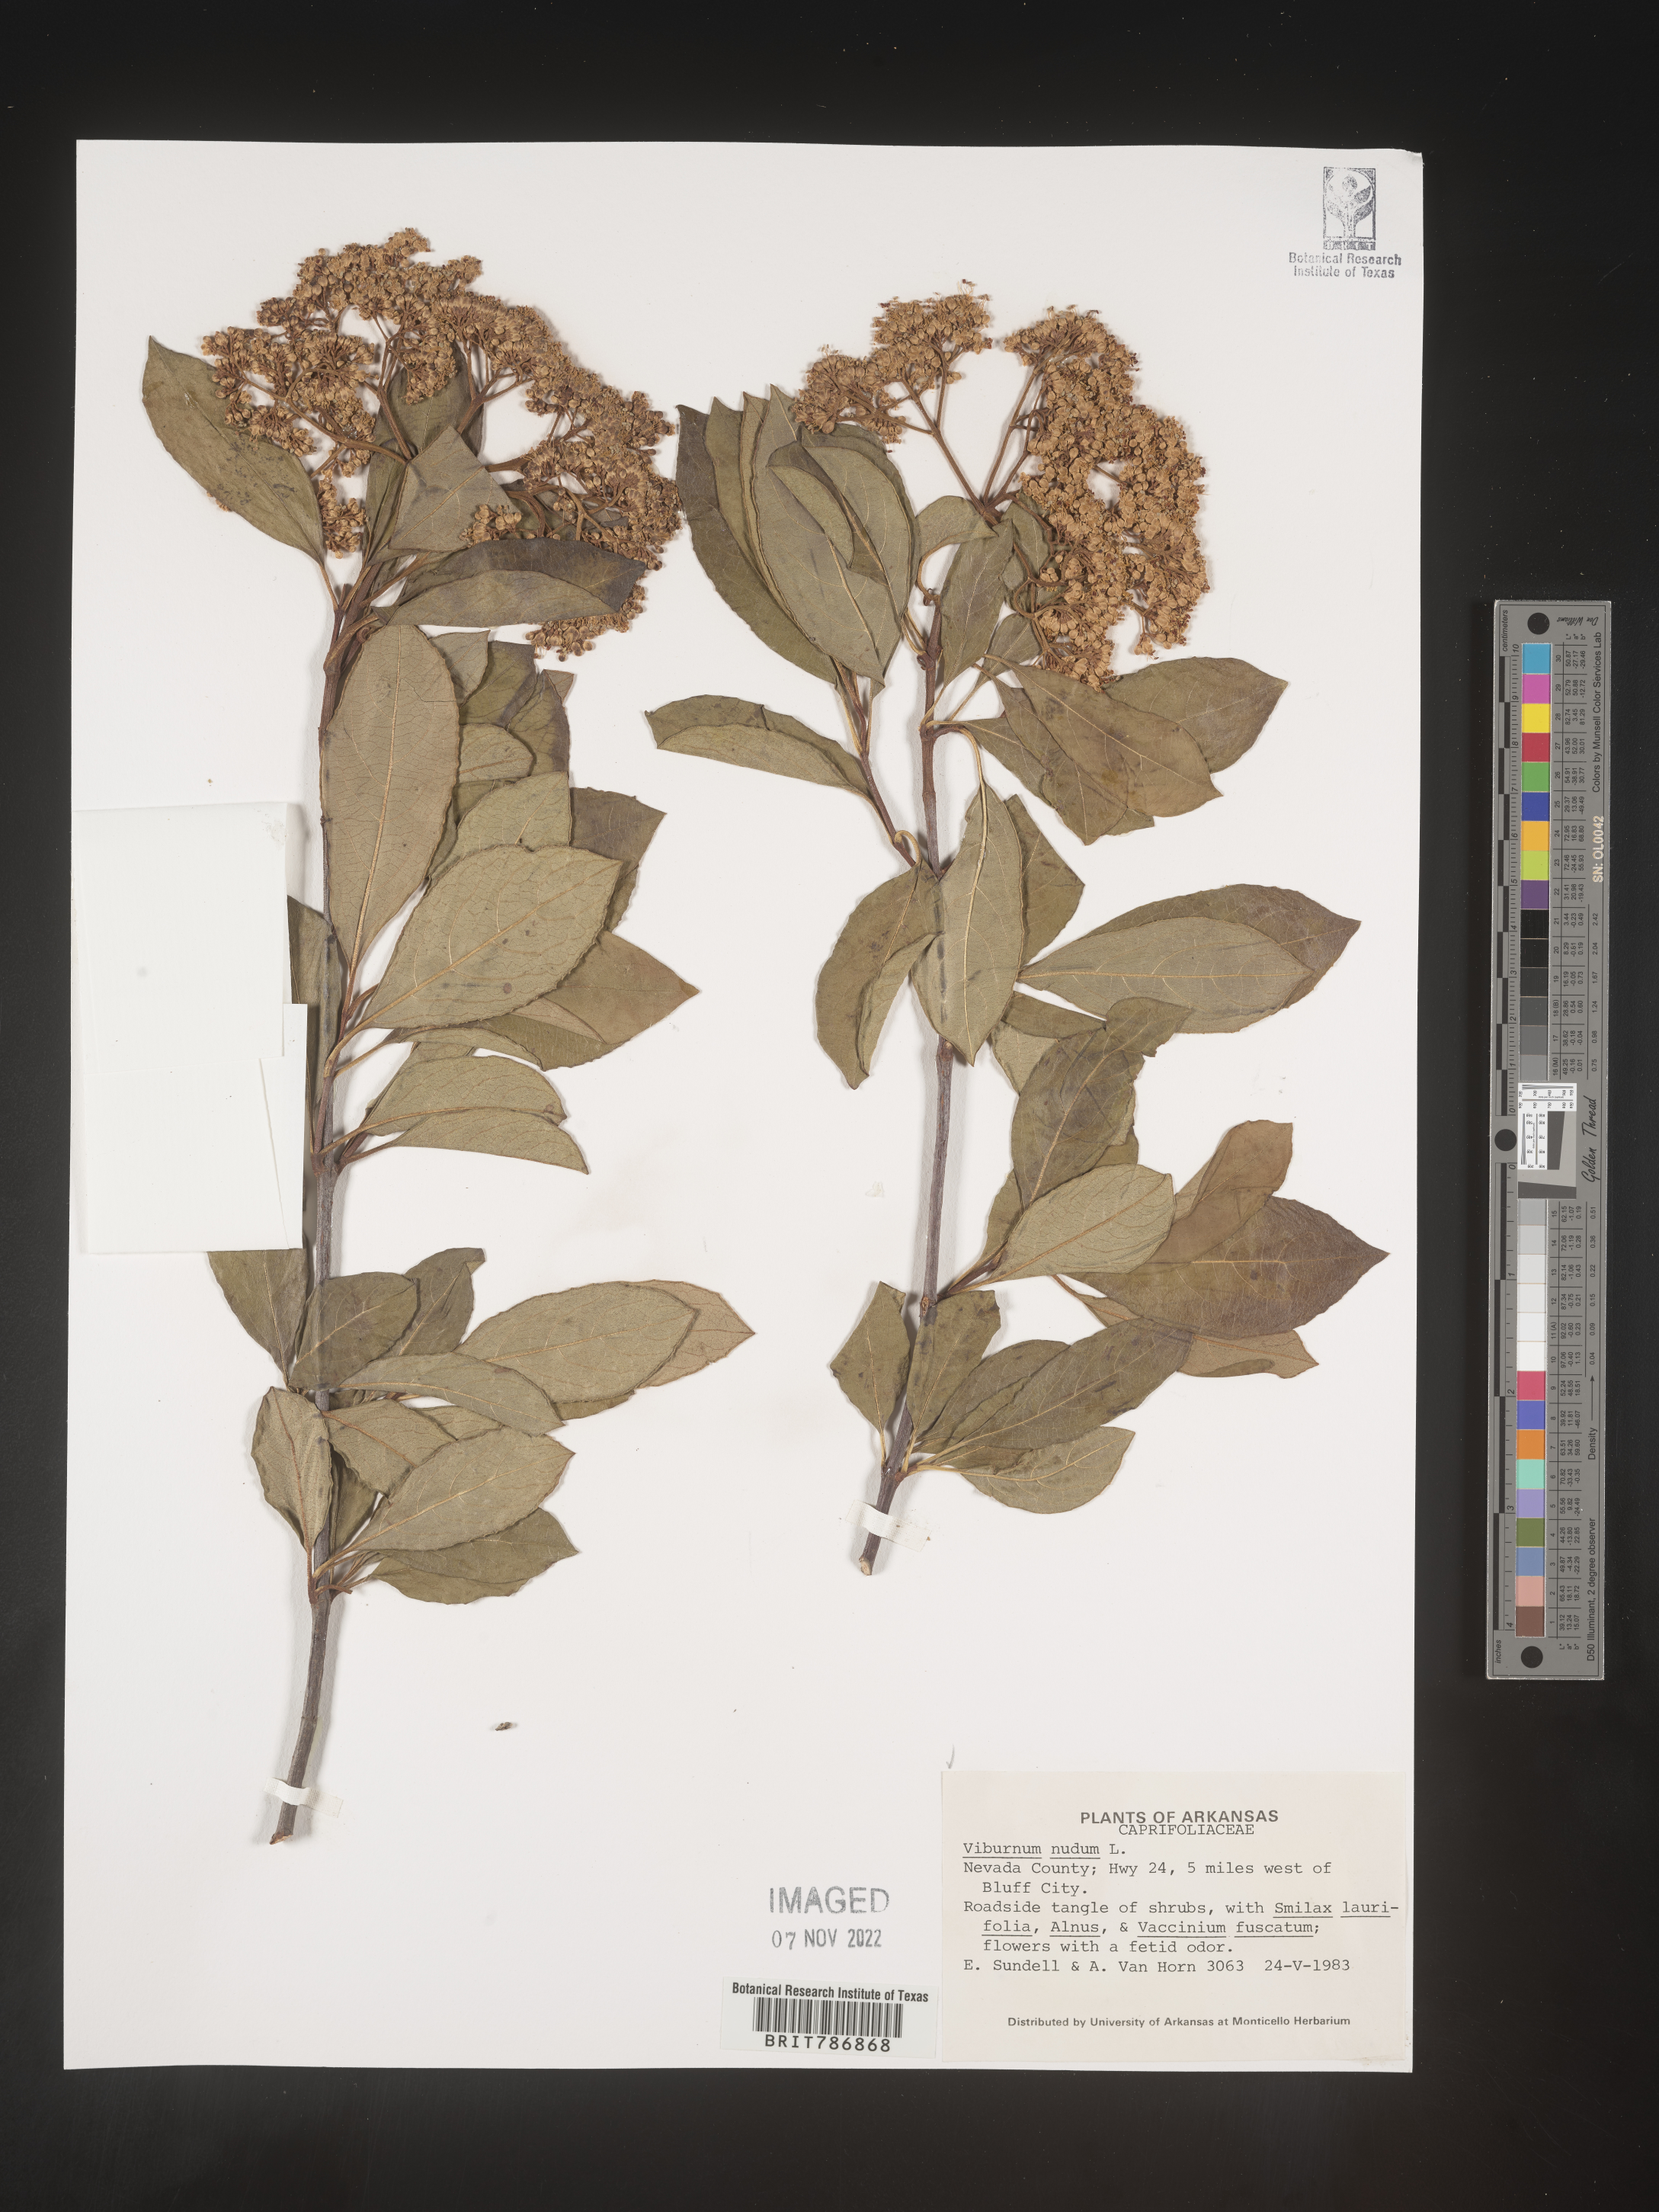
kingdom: Plantae
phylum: Tracheophyta
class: Magnoliopsida
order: Dipsacales
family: Viburnaceae
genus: Viburnum
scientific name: Viburnum nudum
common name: Possum haw
